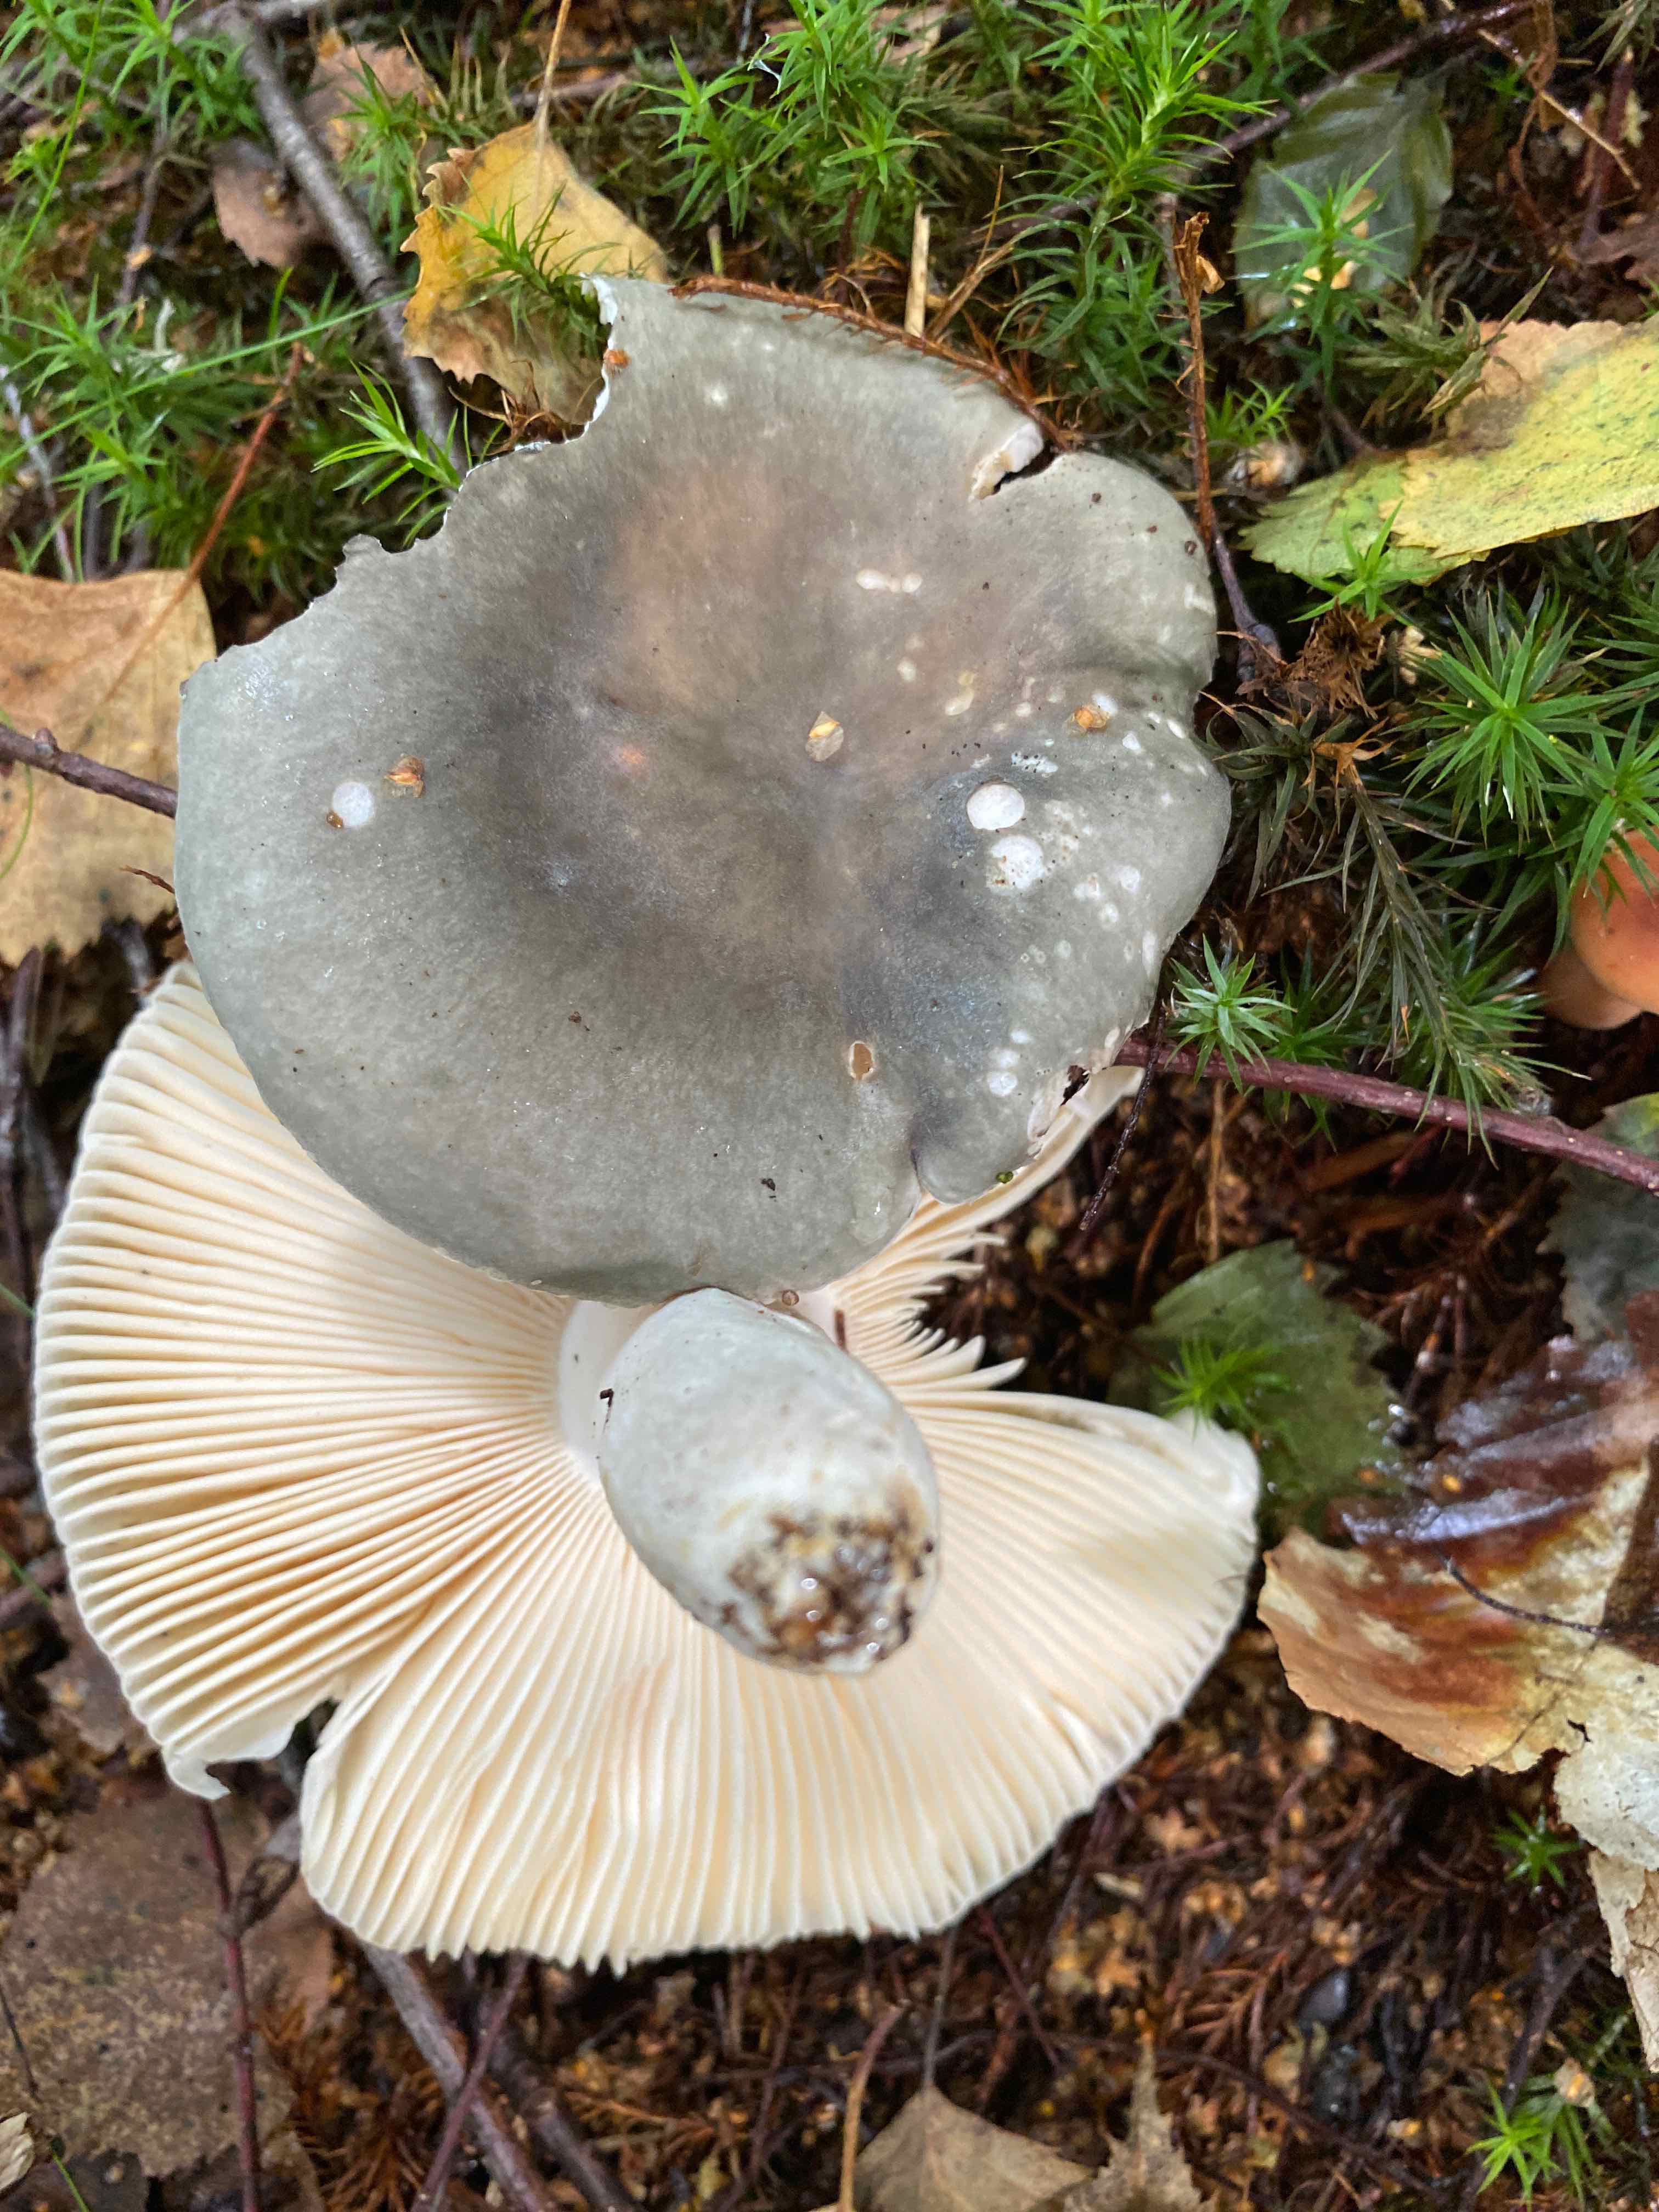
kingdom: Fungi
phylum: Basidiomycota
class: Agaricomycetes
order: Russulales
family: Russulaceae
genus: Russula
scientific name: Russula parazurea
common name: blågrå skørhat
